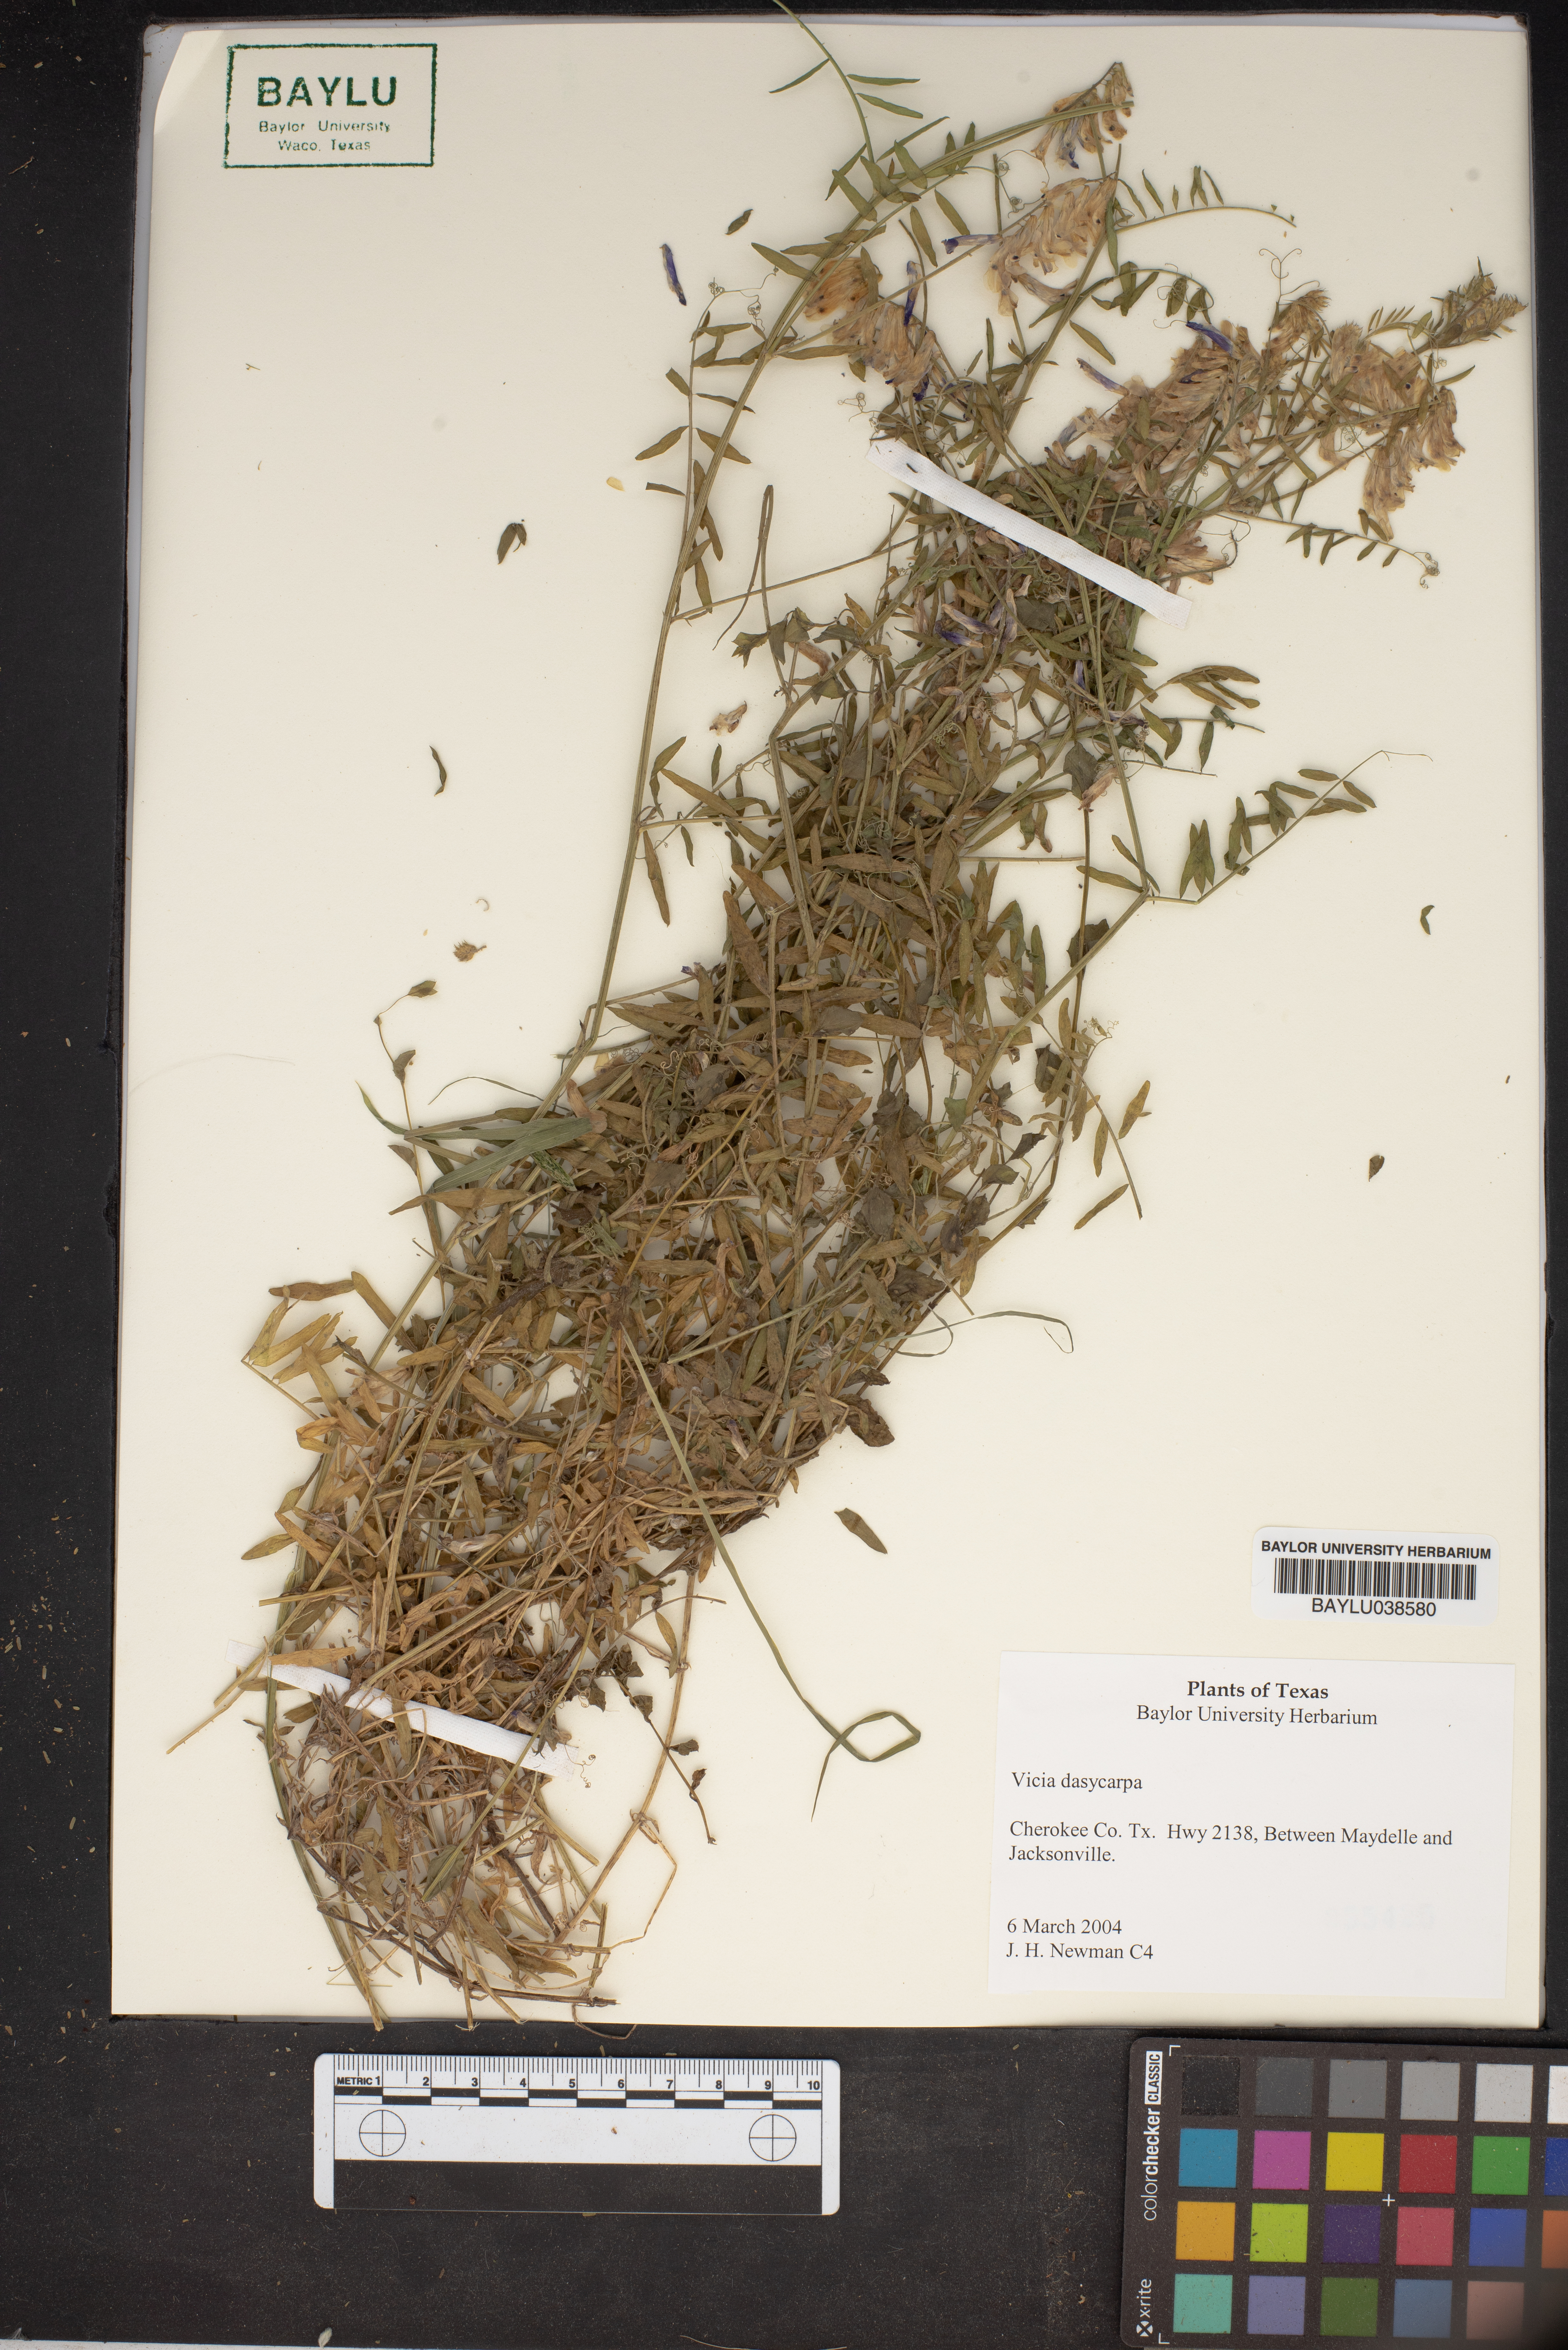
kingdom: Plantae
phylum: Tracheophyta
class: Magnoliopsida
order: Fabales
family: Fabaceae
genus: Vicia
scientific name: Vicia villosa
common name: Fodder vetch
